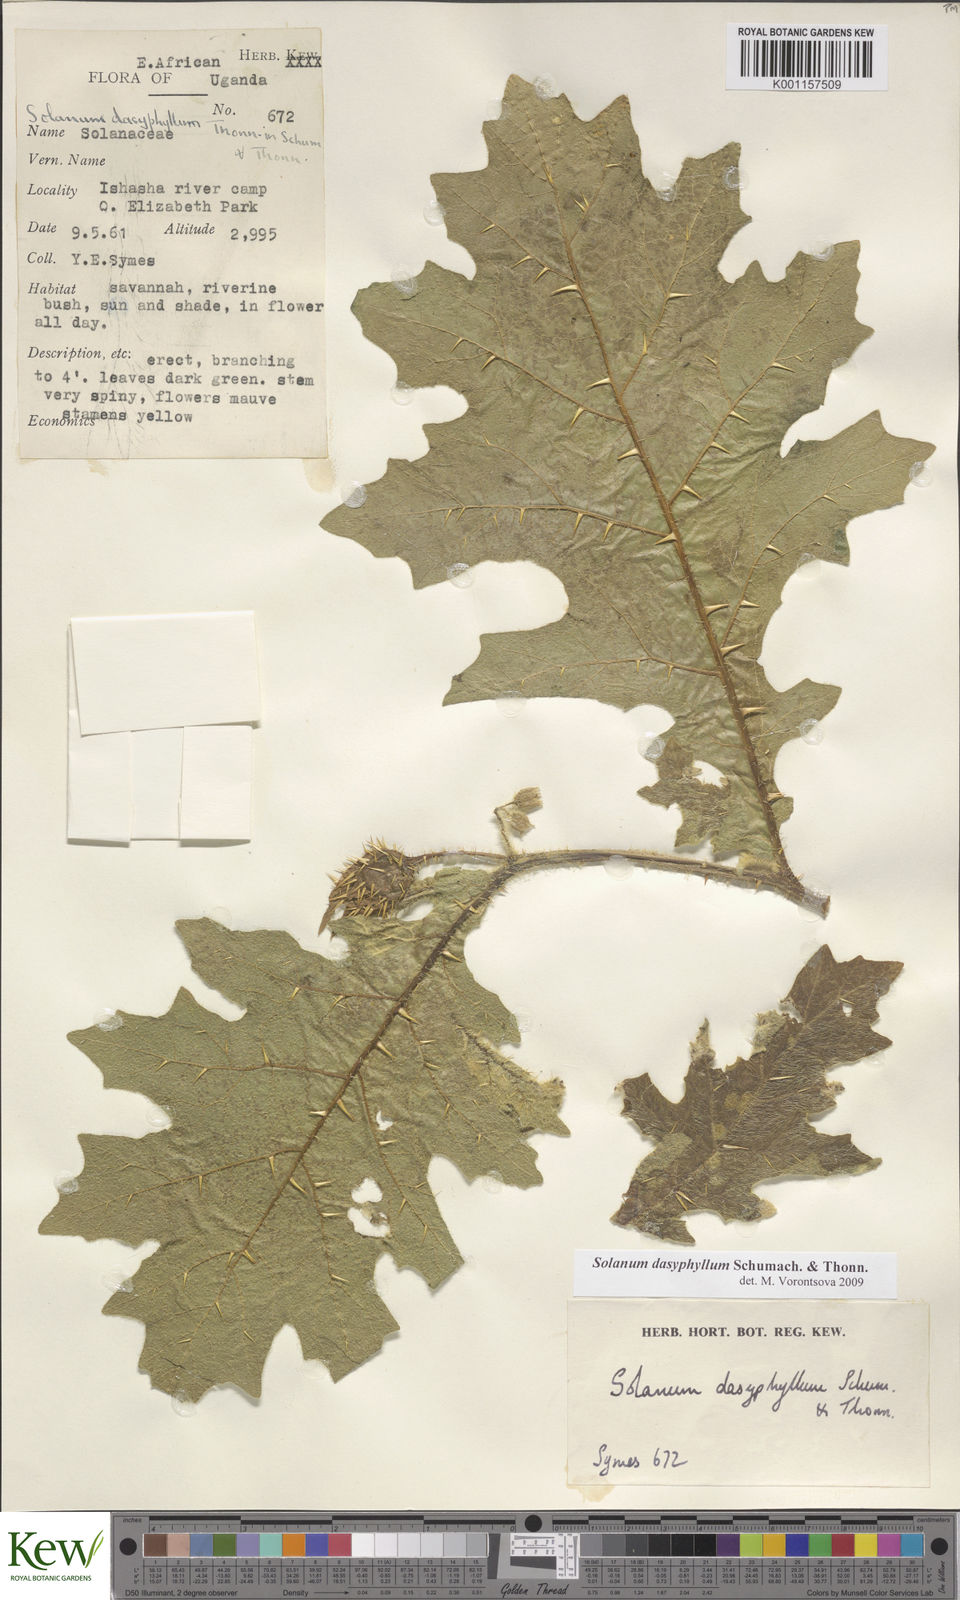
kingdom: Plantae
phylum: Tracheophyta
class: Magnoliopsida
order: Solanales
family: Solanaceae
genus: Solanum
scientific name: Solanum dasyphyllum
